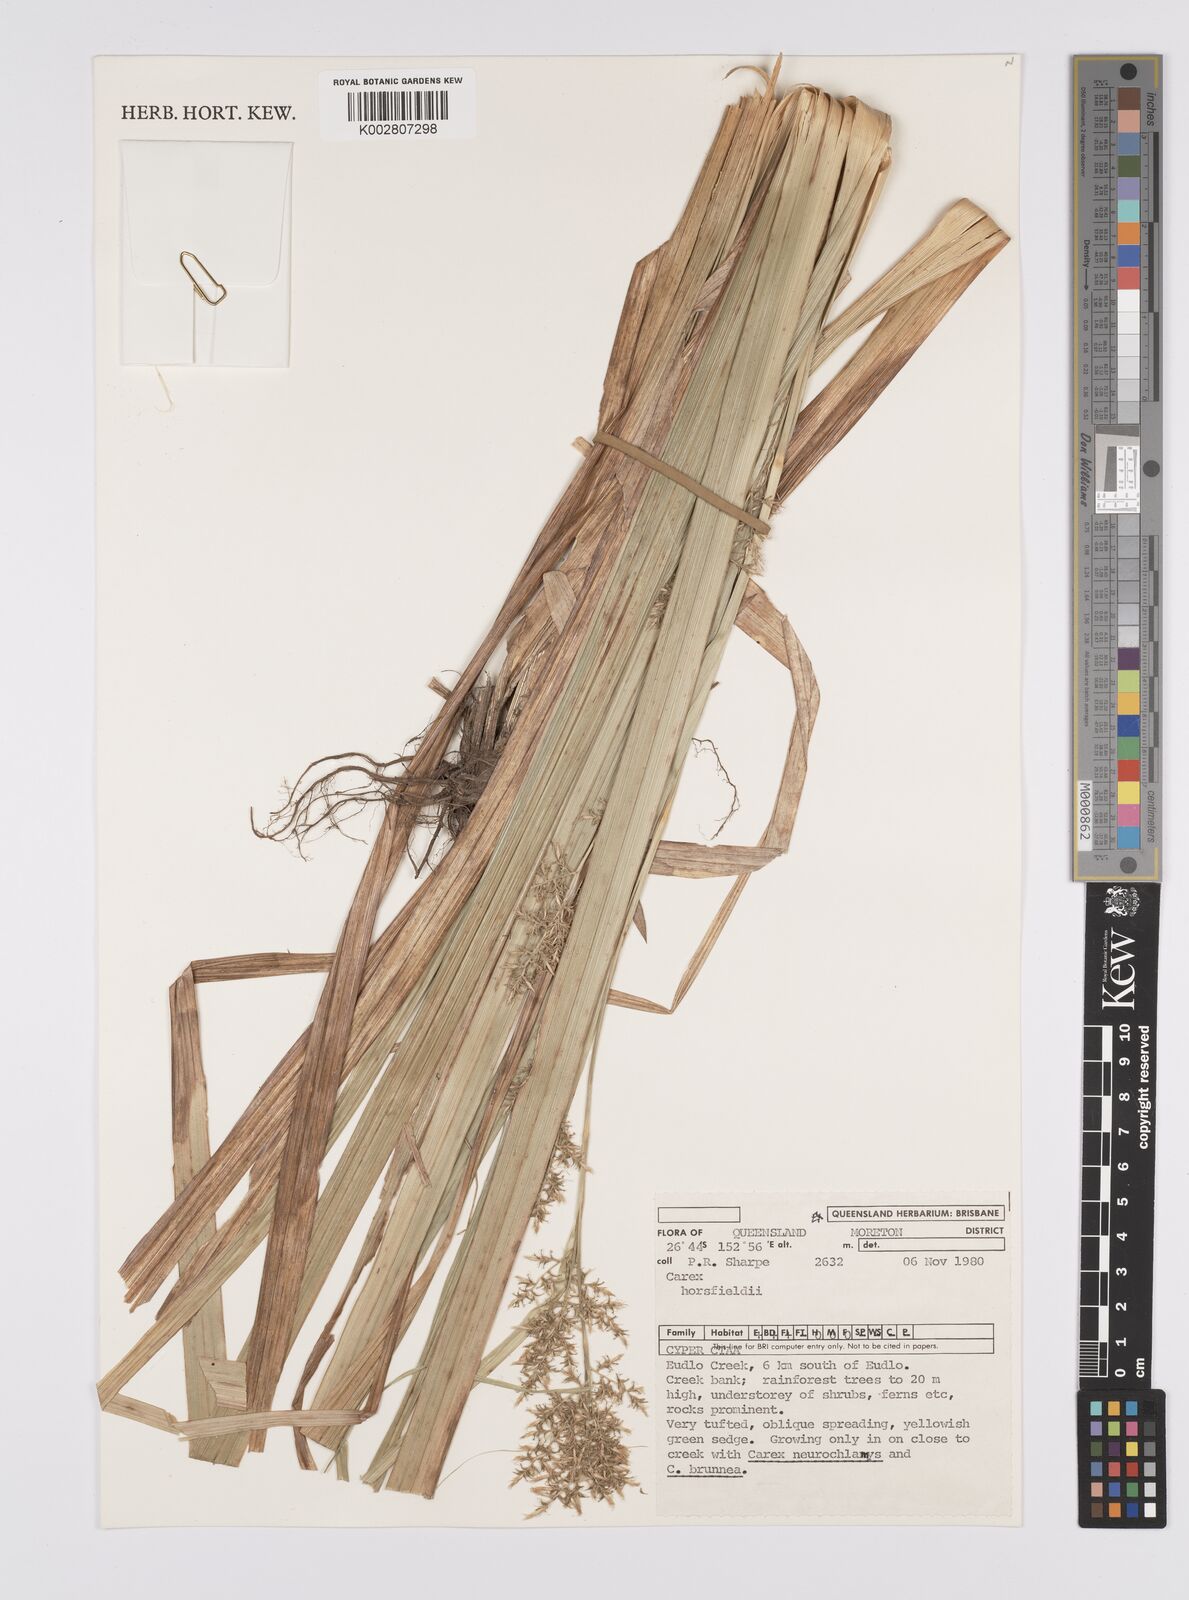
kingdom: Plantae
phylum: Tracheophyta
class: Liliopsida
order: Poales
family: Cyperaceae
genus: Carex
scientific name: Carex horsfieldii
